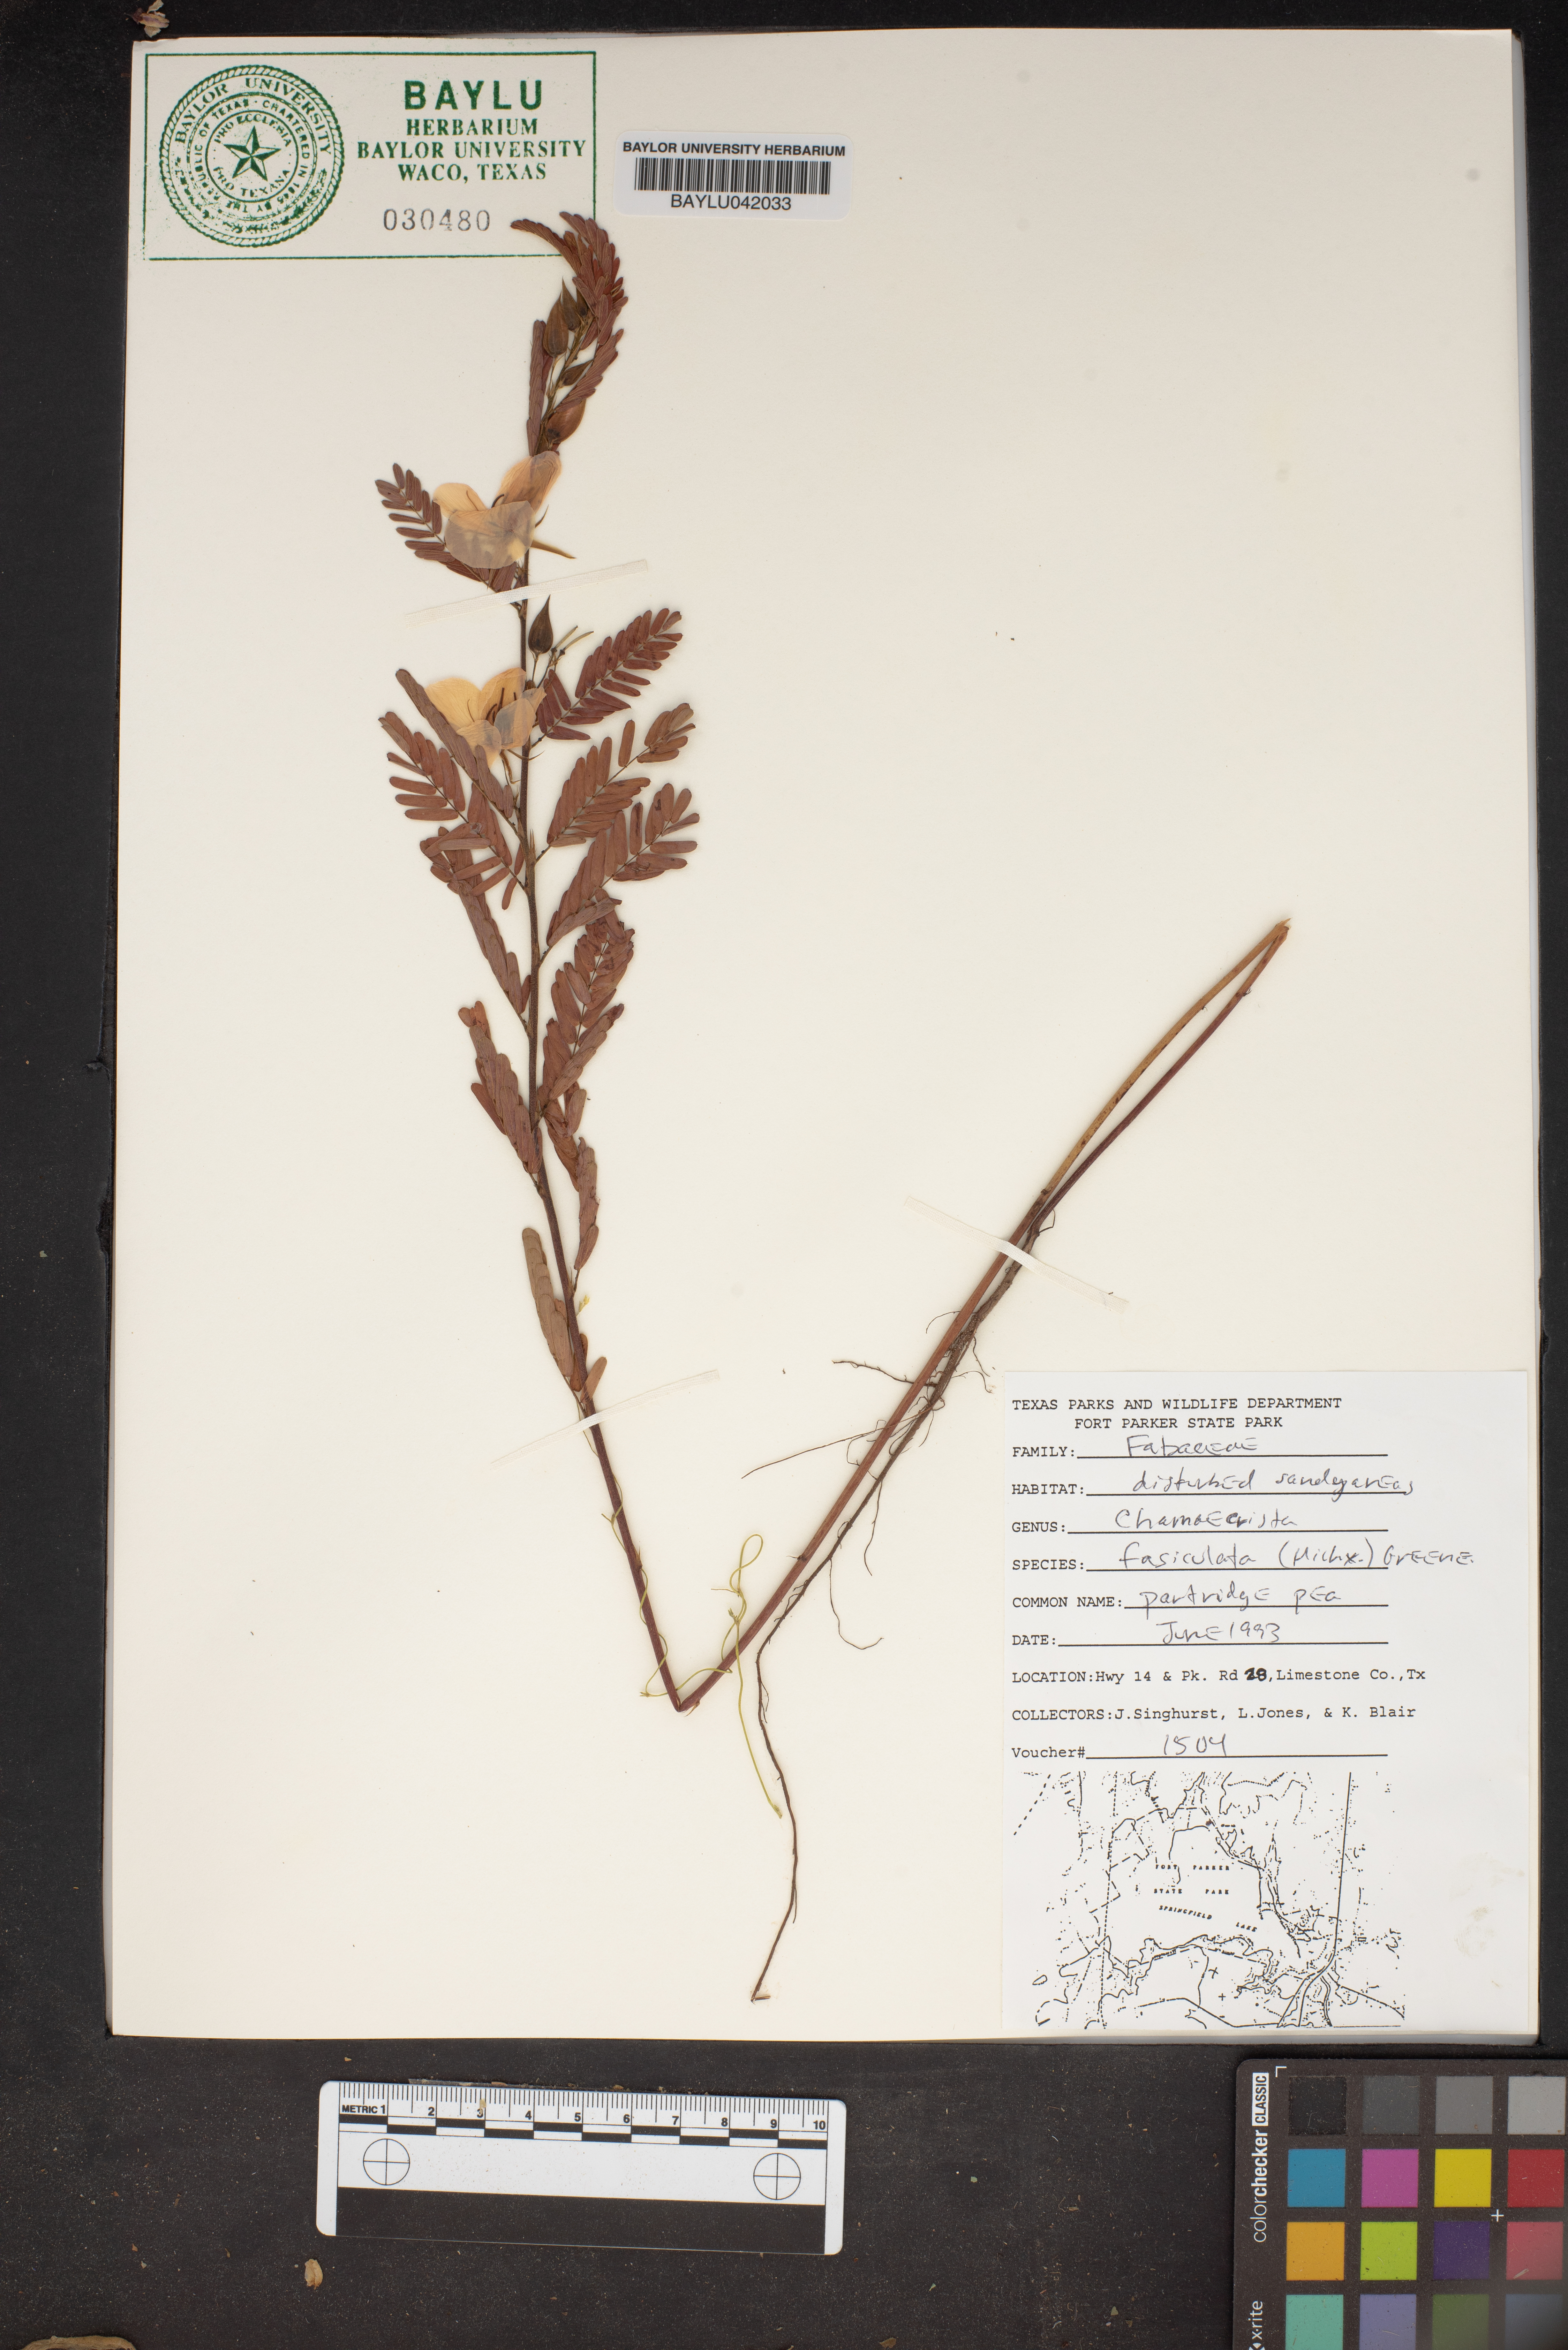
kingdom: Plantae
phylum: Tracheophyta
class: Magnoliopsida
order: Fabales
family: Fabaceae
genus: Chamaecrista
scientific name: Chamaecrista fasciculata
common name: Golden cassia
